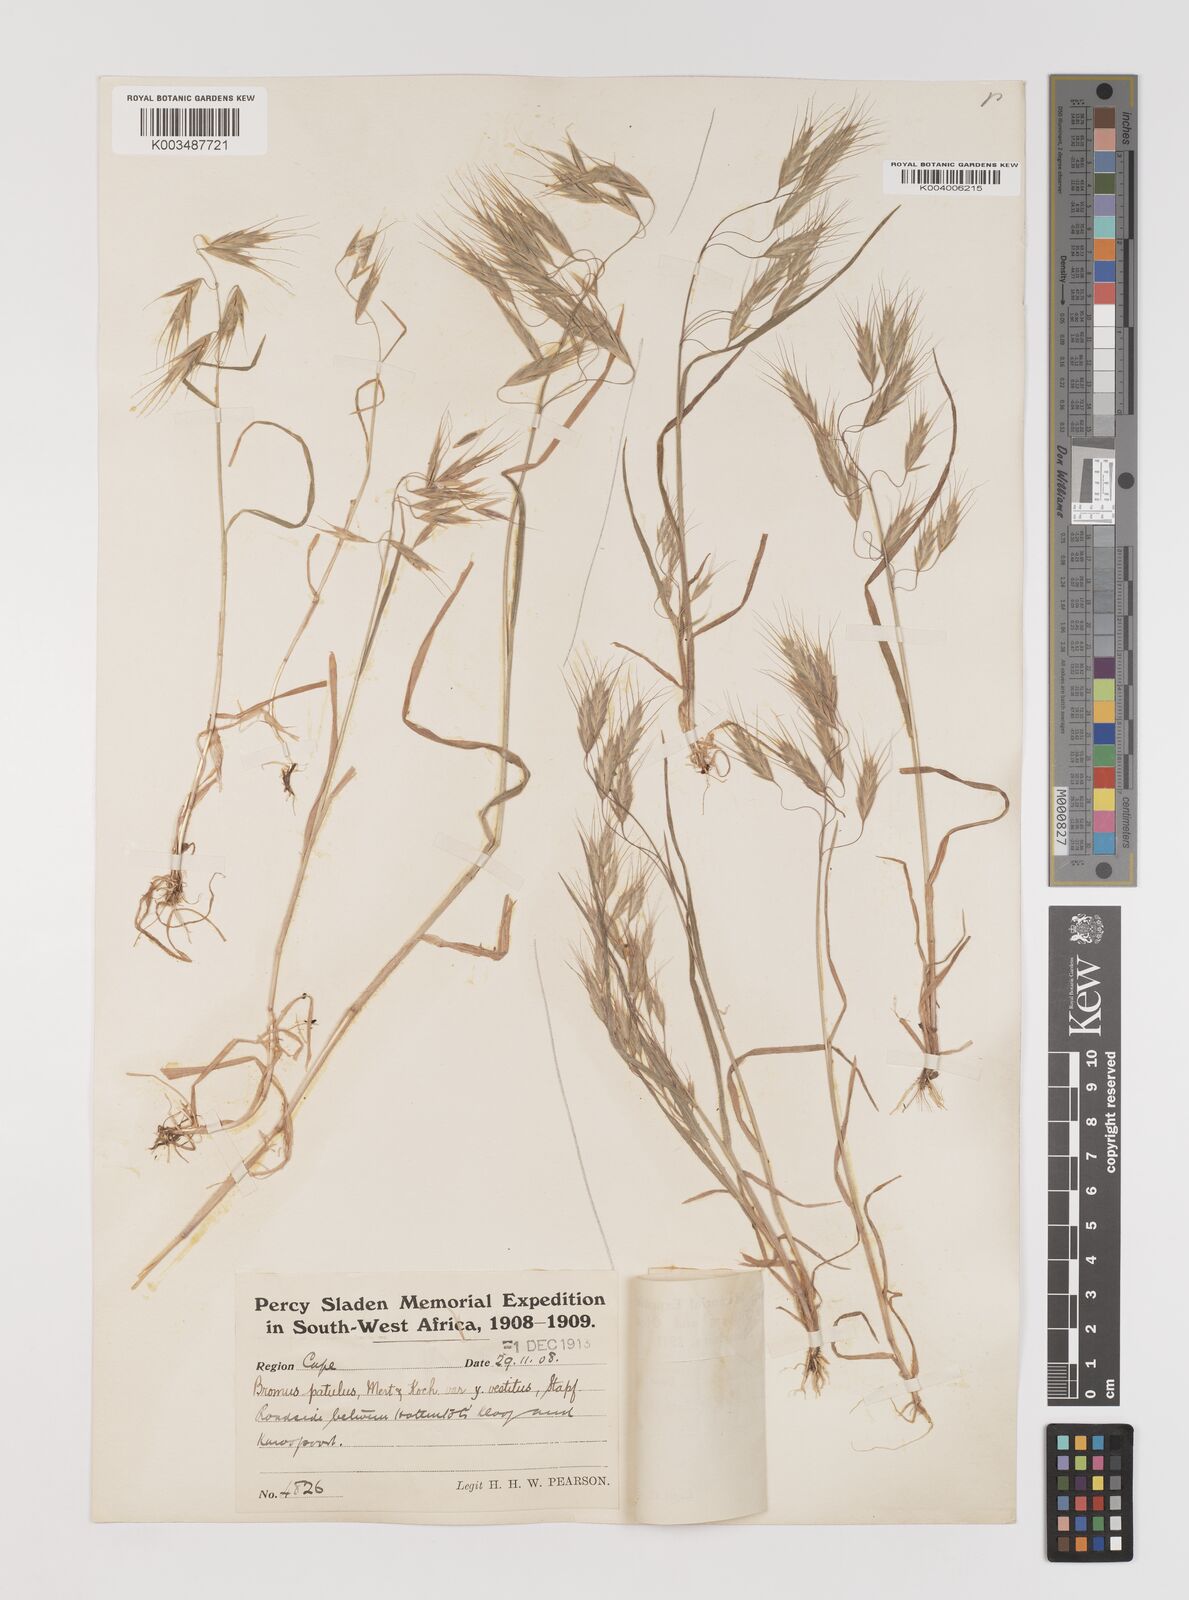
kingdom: Plantae
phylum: Tracheophyta
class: Liliopsida
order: Poales
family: Poaceae
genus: Bromus
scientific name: Bromus pectinatus
